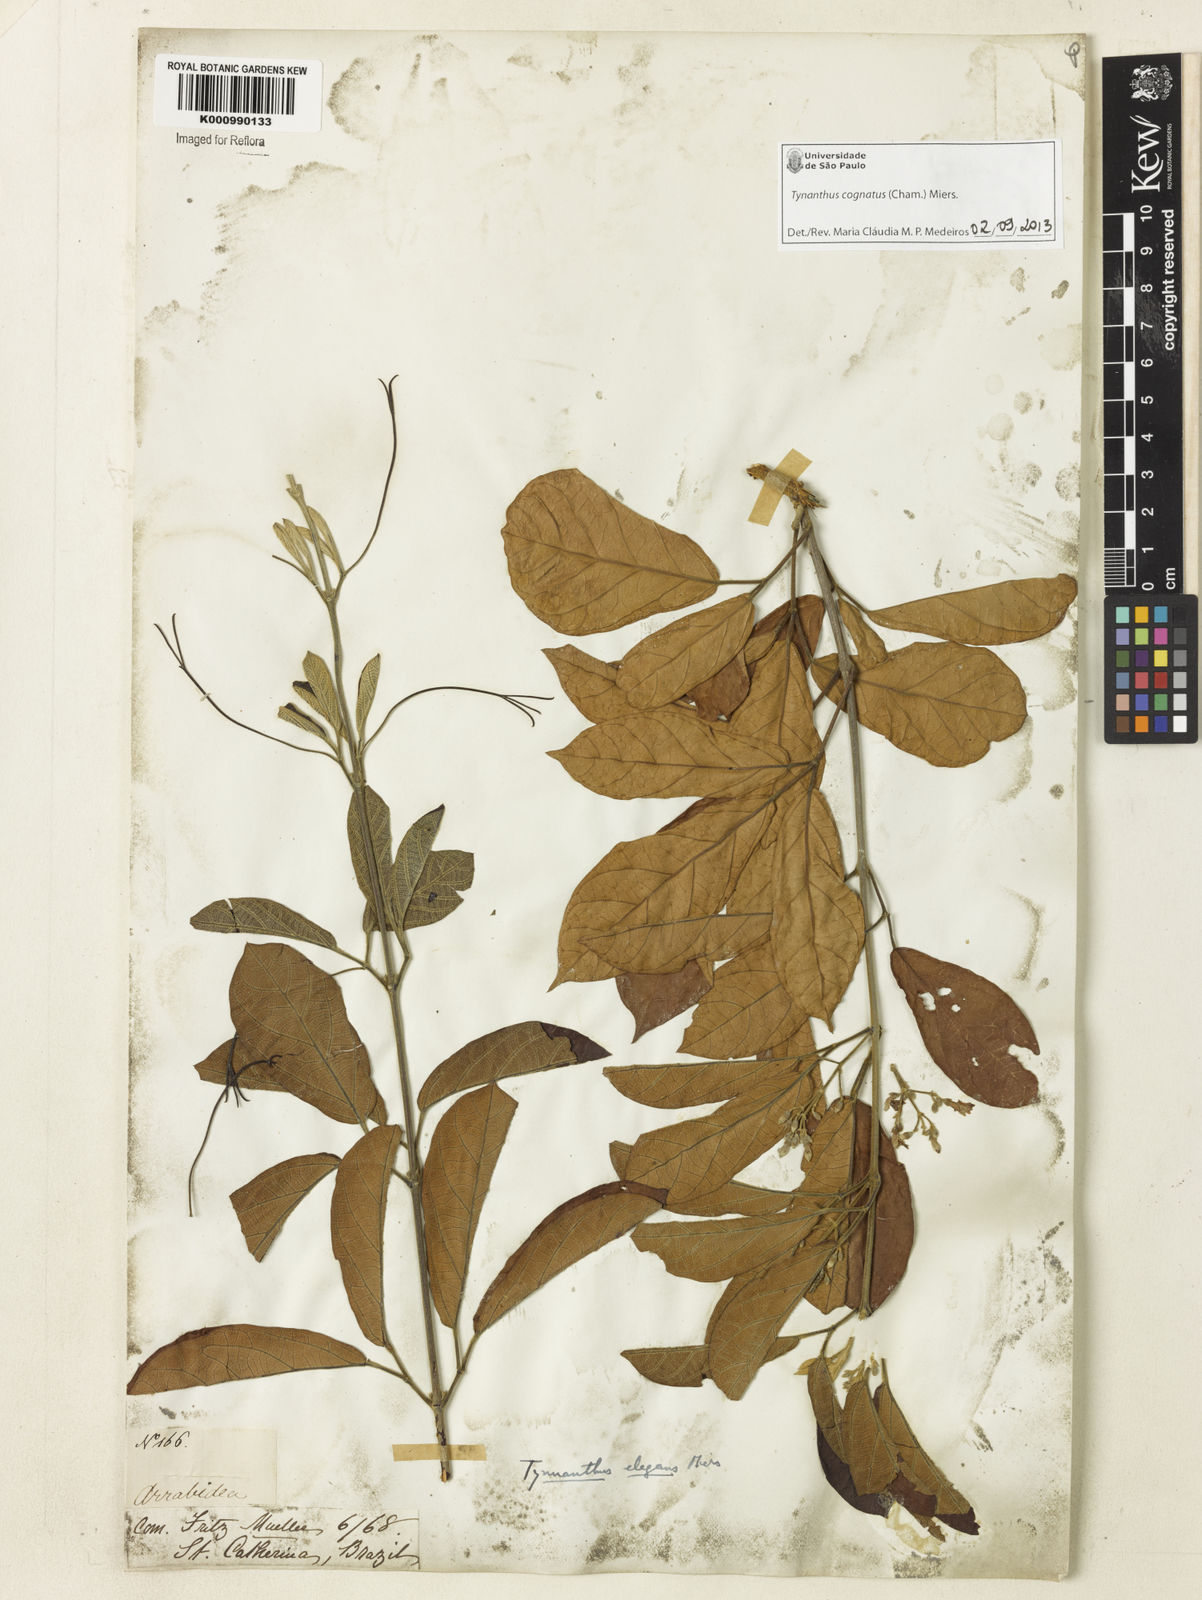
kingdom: Plantae
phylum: Tracheophyta
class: Magnoliopsida
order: Lamiales
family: Bignoniaceae
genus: Tynanthus
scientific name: Tynanthus cognatus
